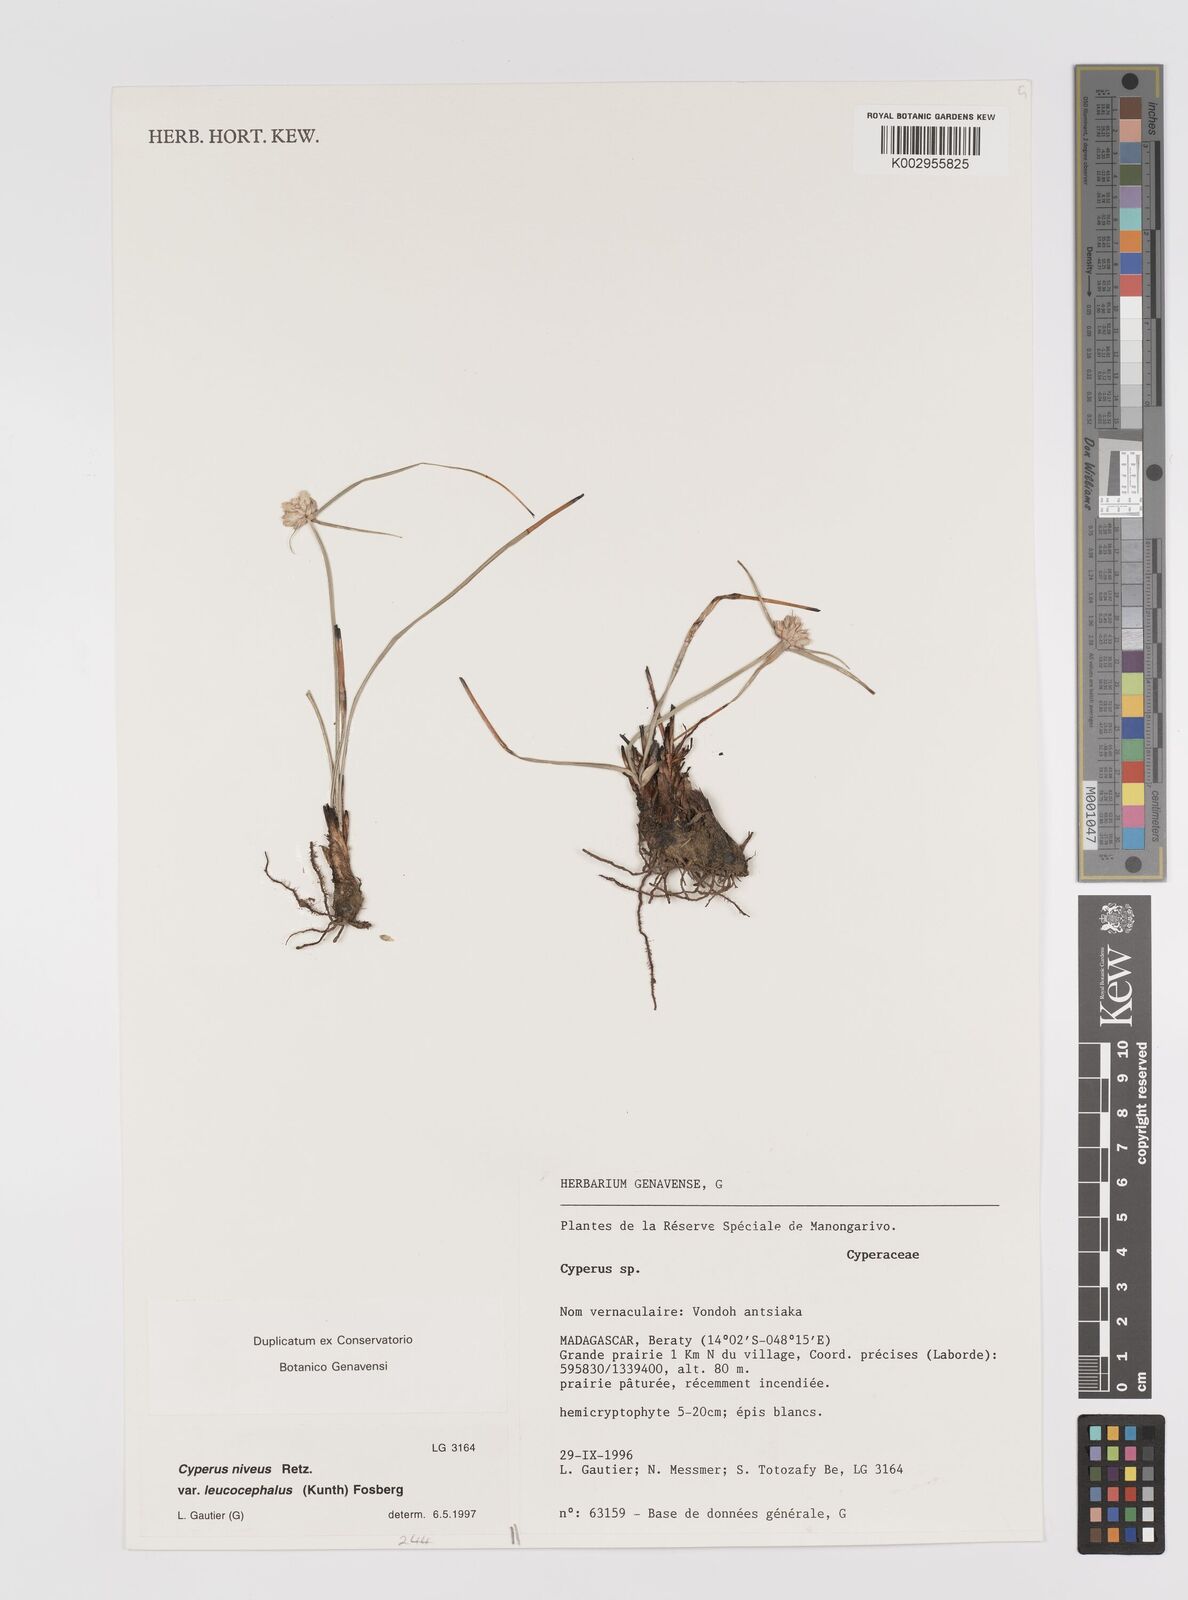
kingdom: Plantae
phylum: Tracheophyta
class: Liliopsida
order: Poales
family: Cyperaceae
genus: Cyperus
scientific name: Cyperus niveus
